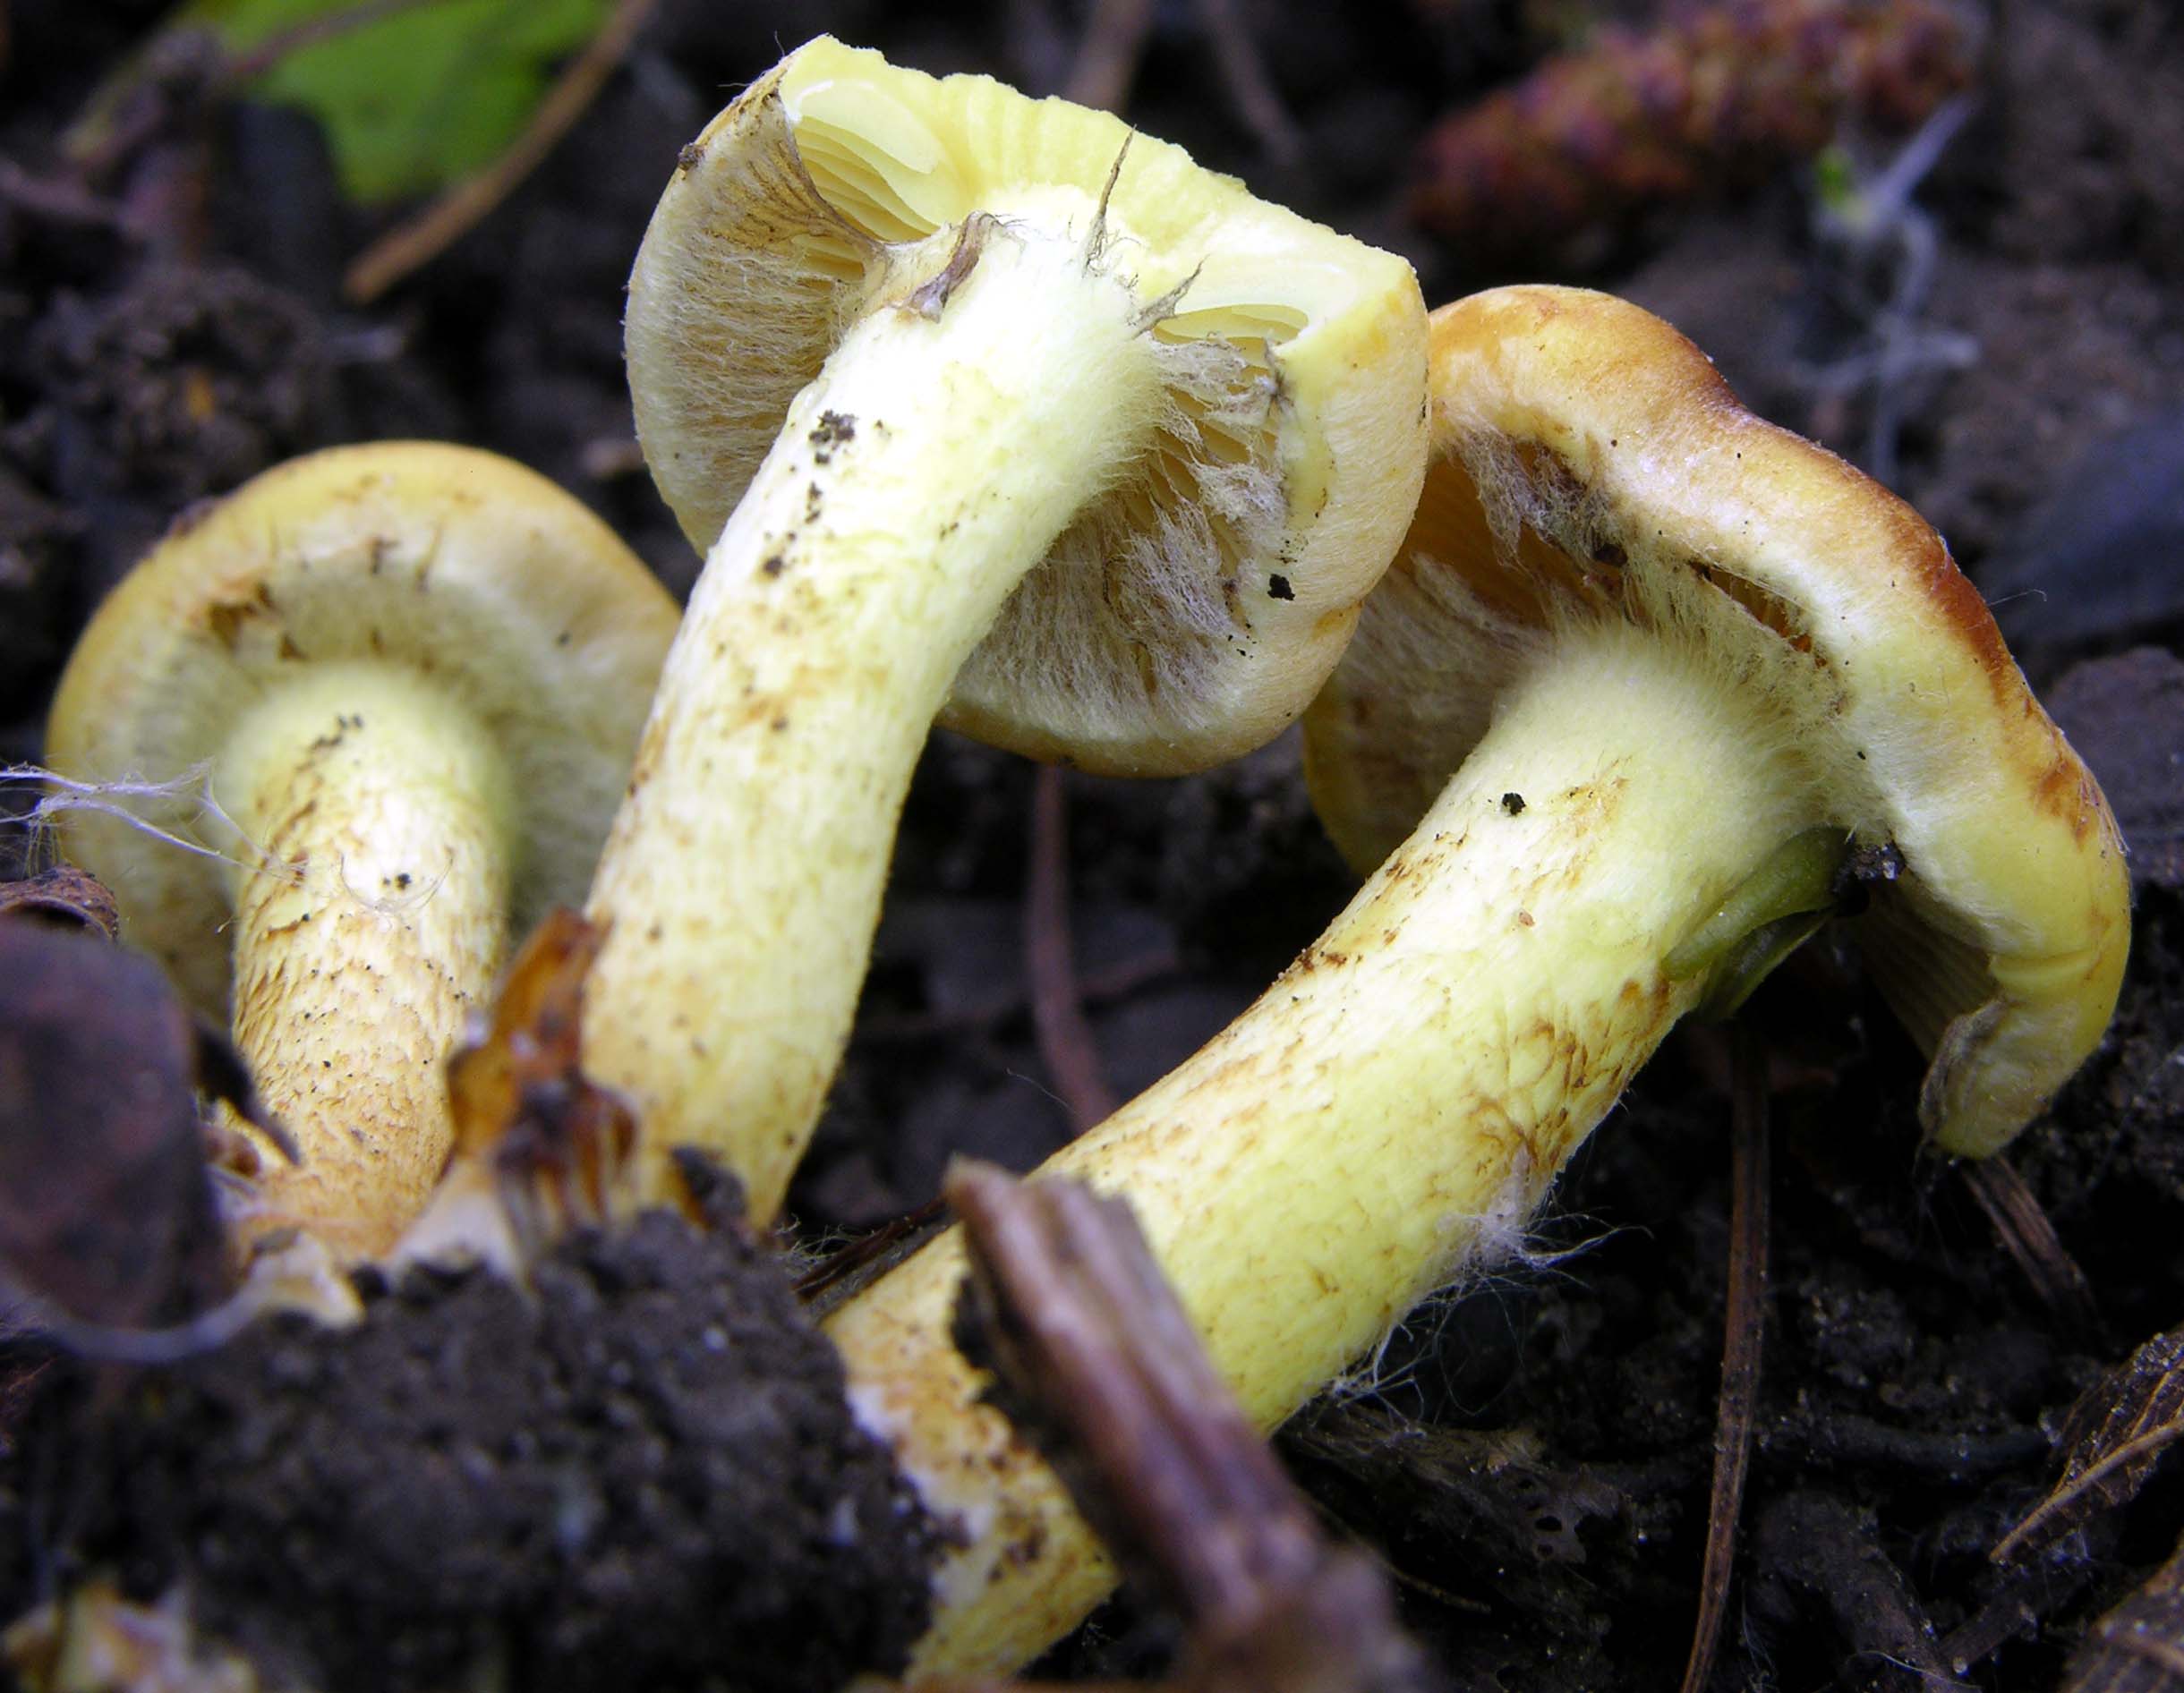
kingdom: Fungi
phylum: Basidiomycota
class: Agaricomycetes
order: Agaricales
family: Strophariaceae
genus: Hypholoma
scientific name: Hypholoma fasciculare
